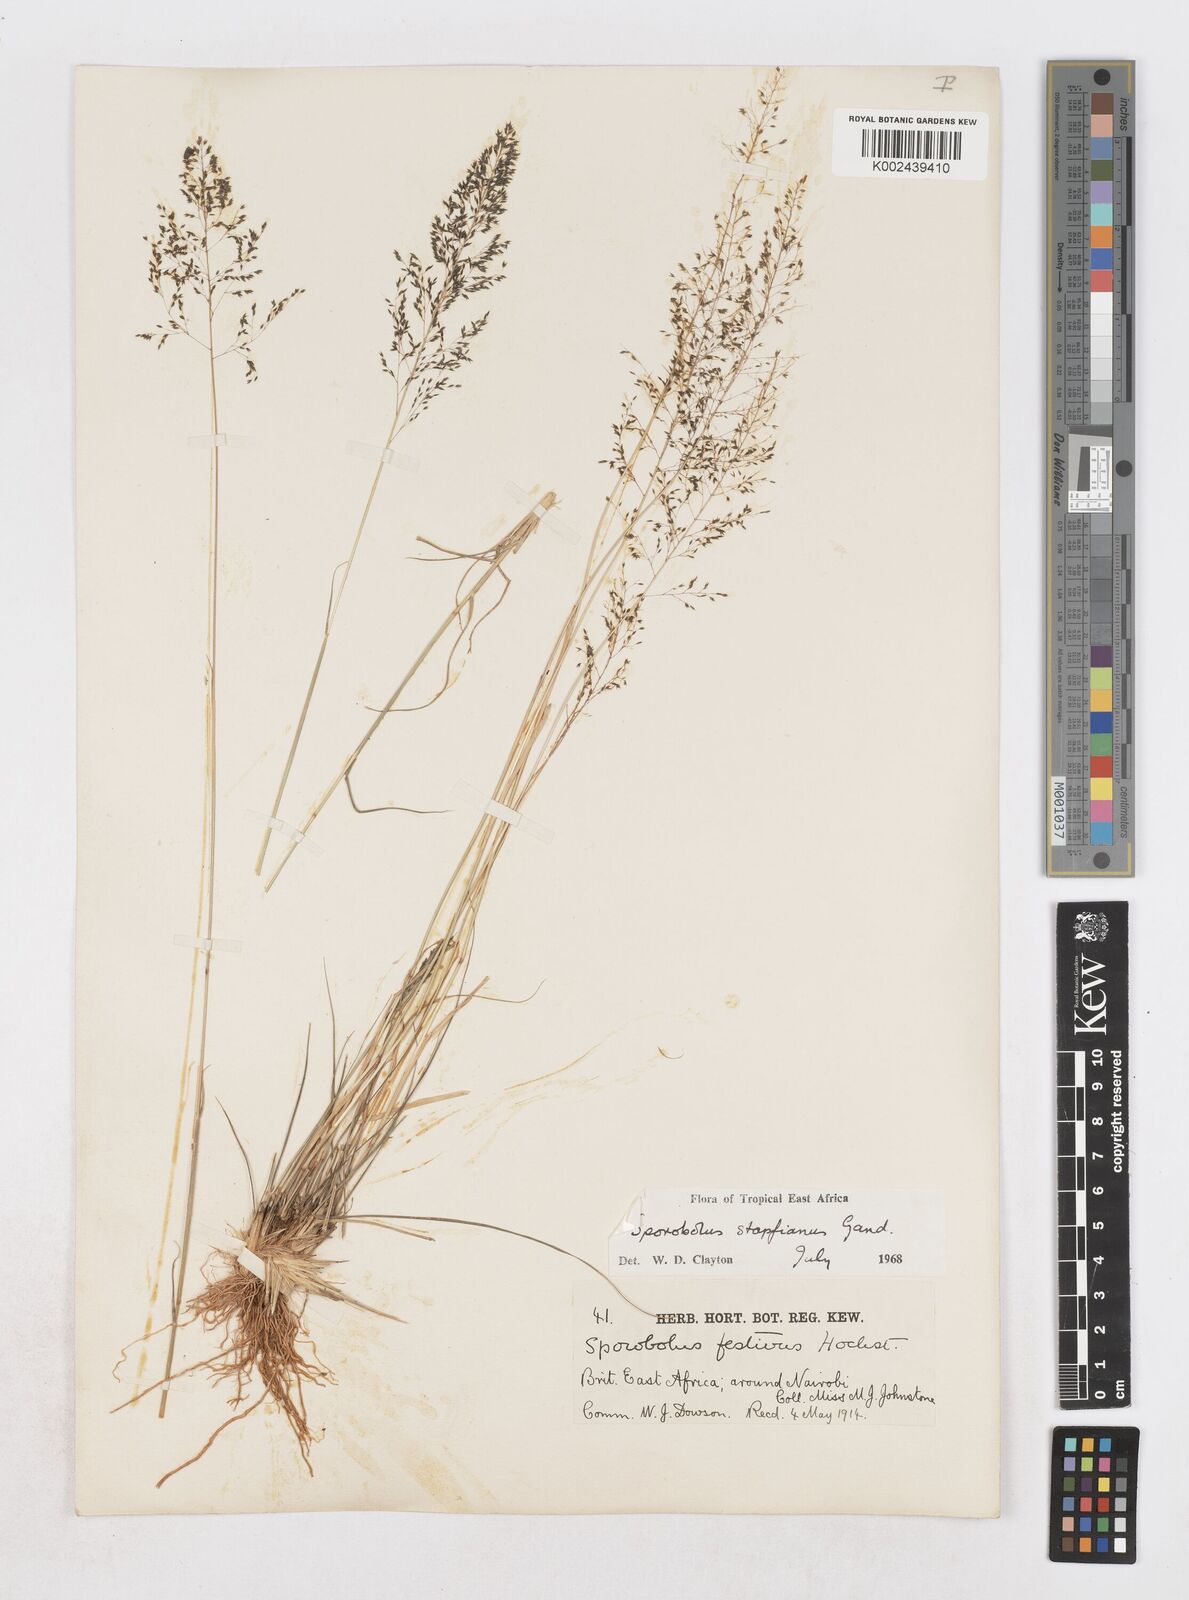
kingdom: Plantae
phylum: Tracheophyta
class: Liliopsida
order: Poales
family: Poaceae
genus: Sporobolus
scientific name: Sporobolus stapfianus
